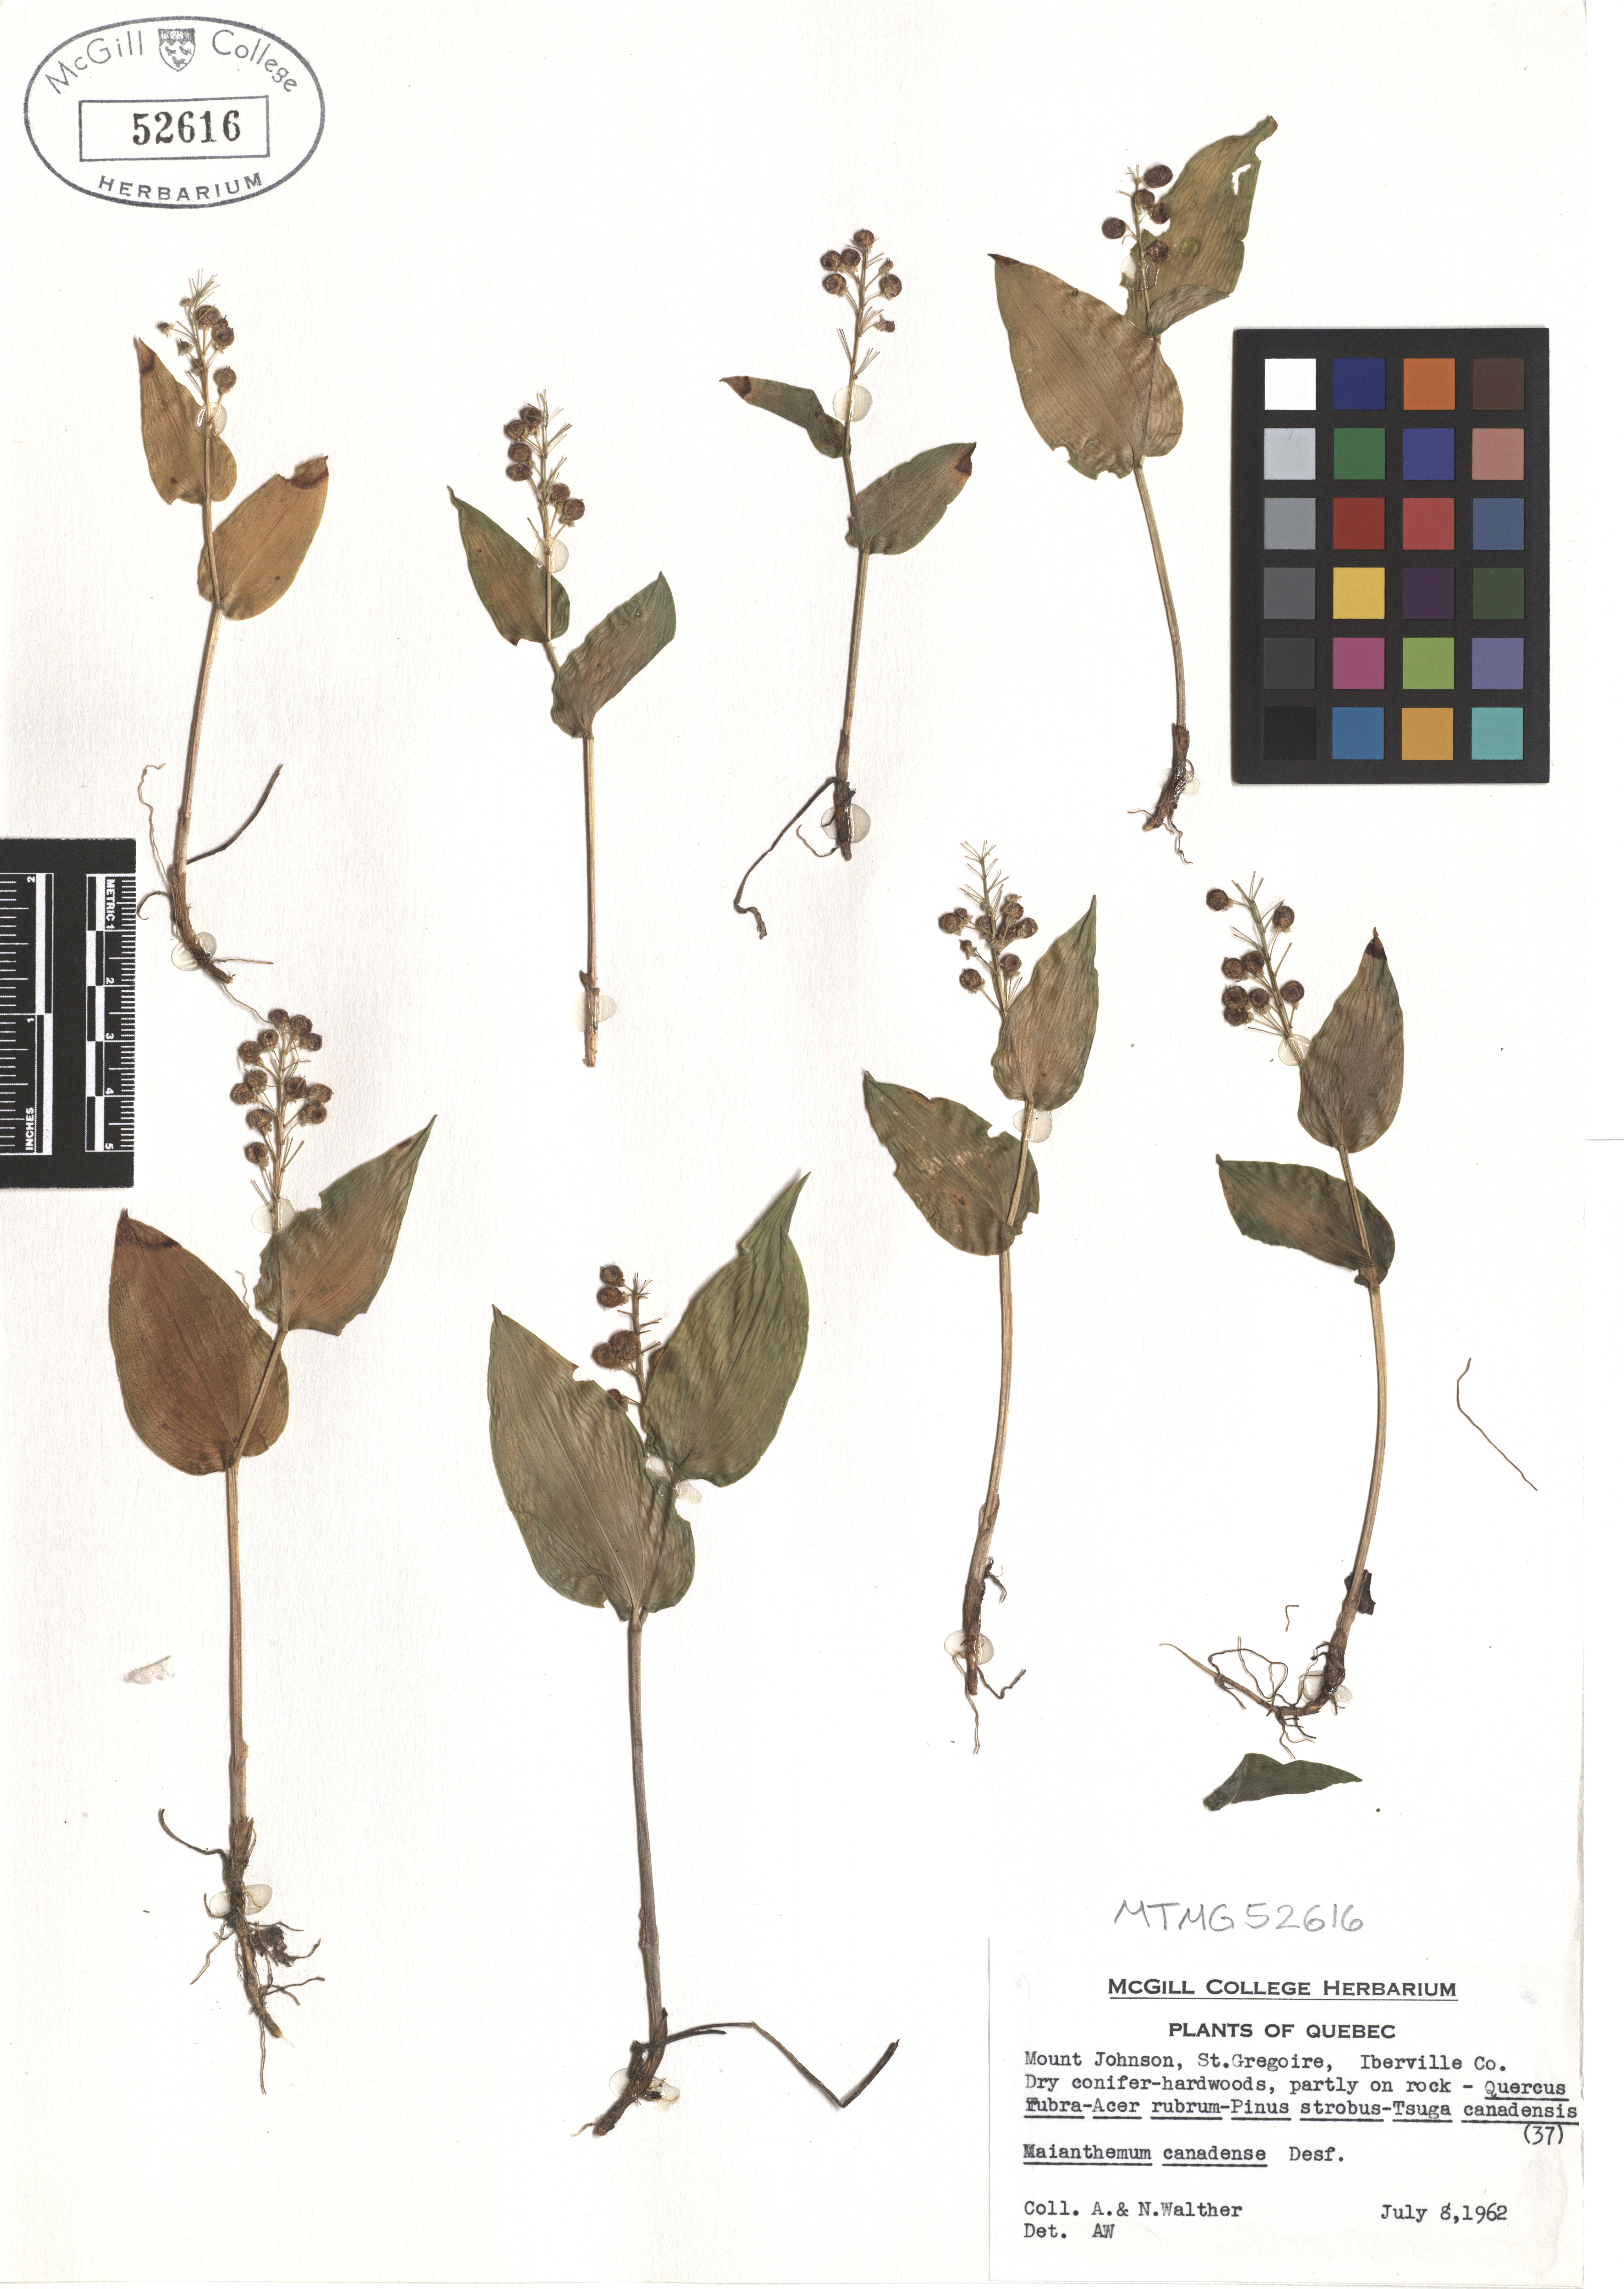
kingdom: Plantae
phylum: Tracheophyta
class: Liliopsida
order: Asparagales
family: Asparagaceae
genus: Maianthemum
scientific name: Maianthemum canadense
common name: False lily-of-the-valley
